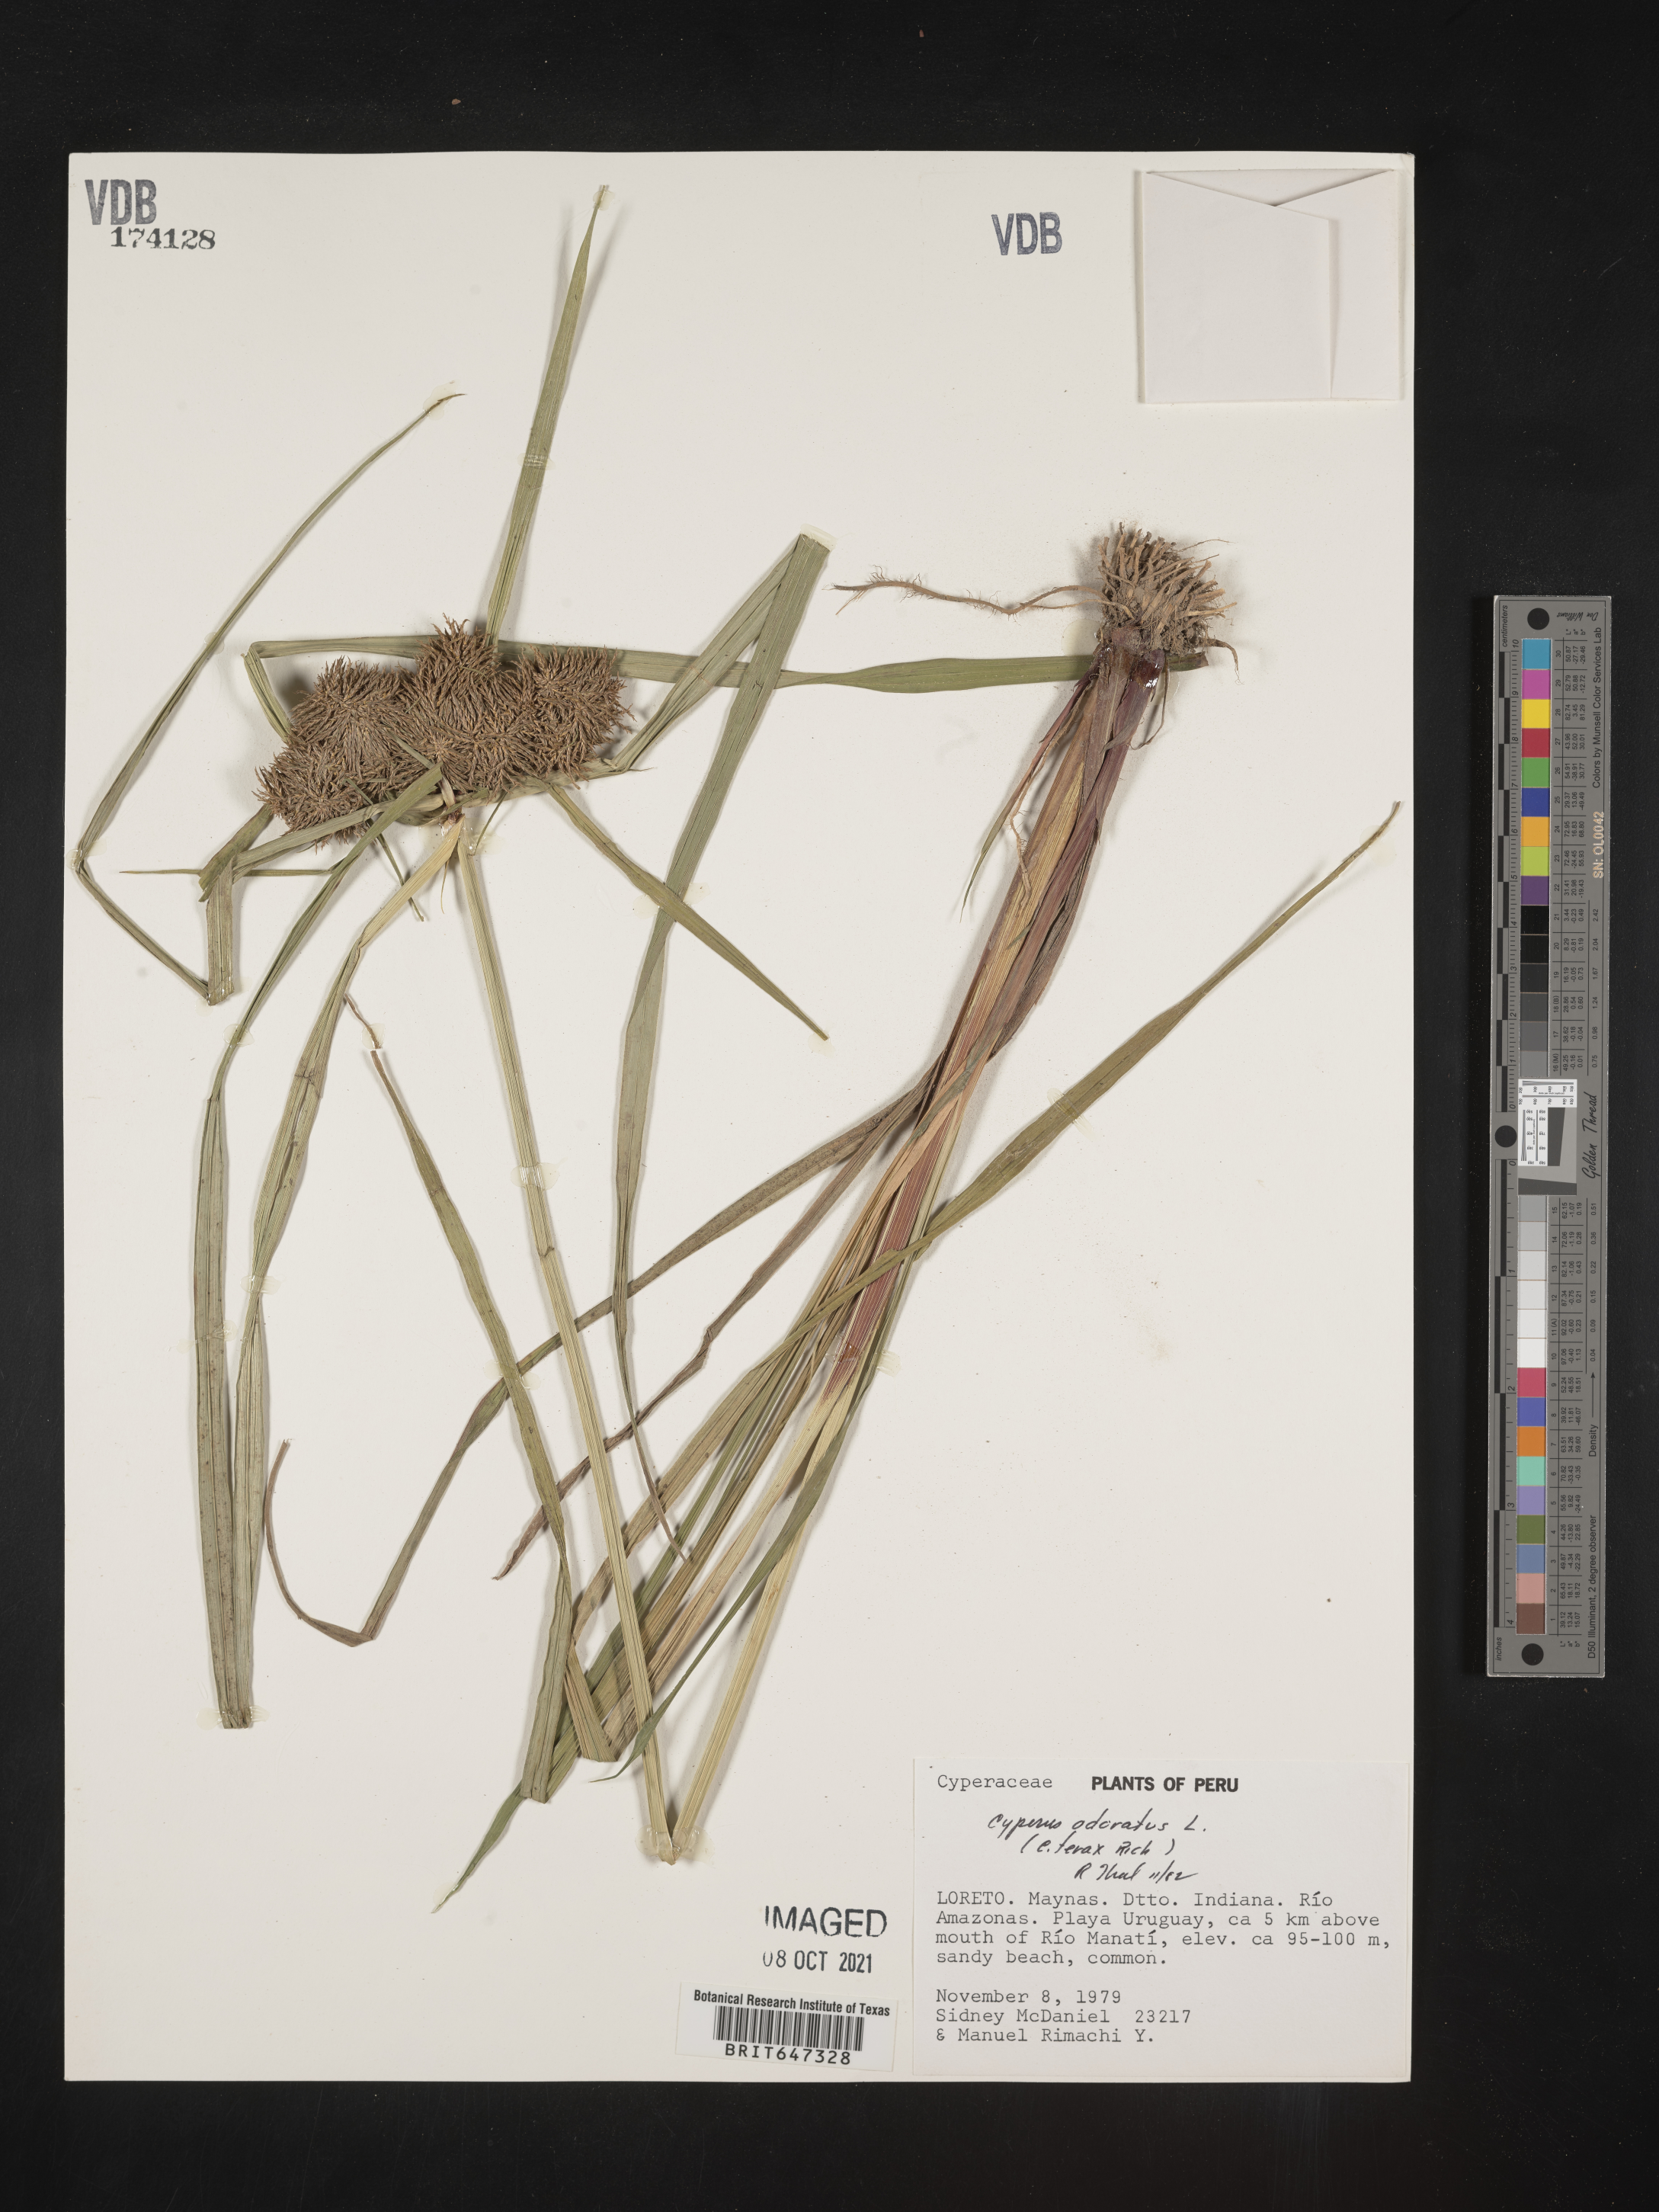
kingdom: Plantae
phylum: Tracheophyta
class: Liliopsida
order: Poales
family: Cyperaceae
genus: Cyperus
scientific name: Cyperus odoratus
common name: Fragrant flatsedge
